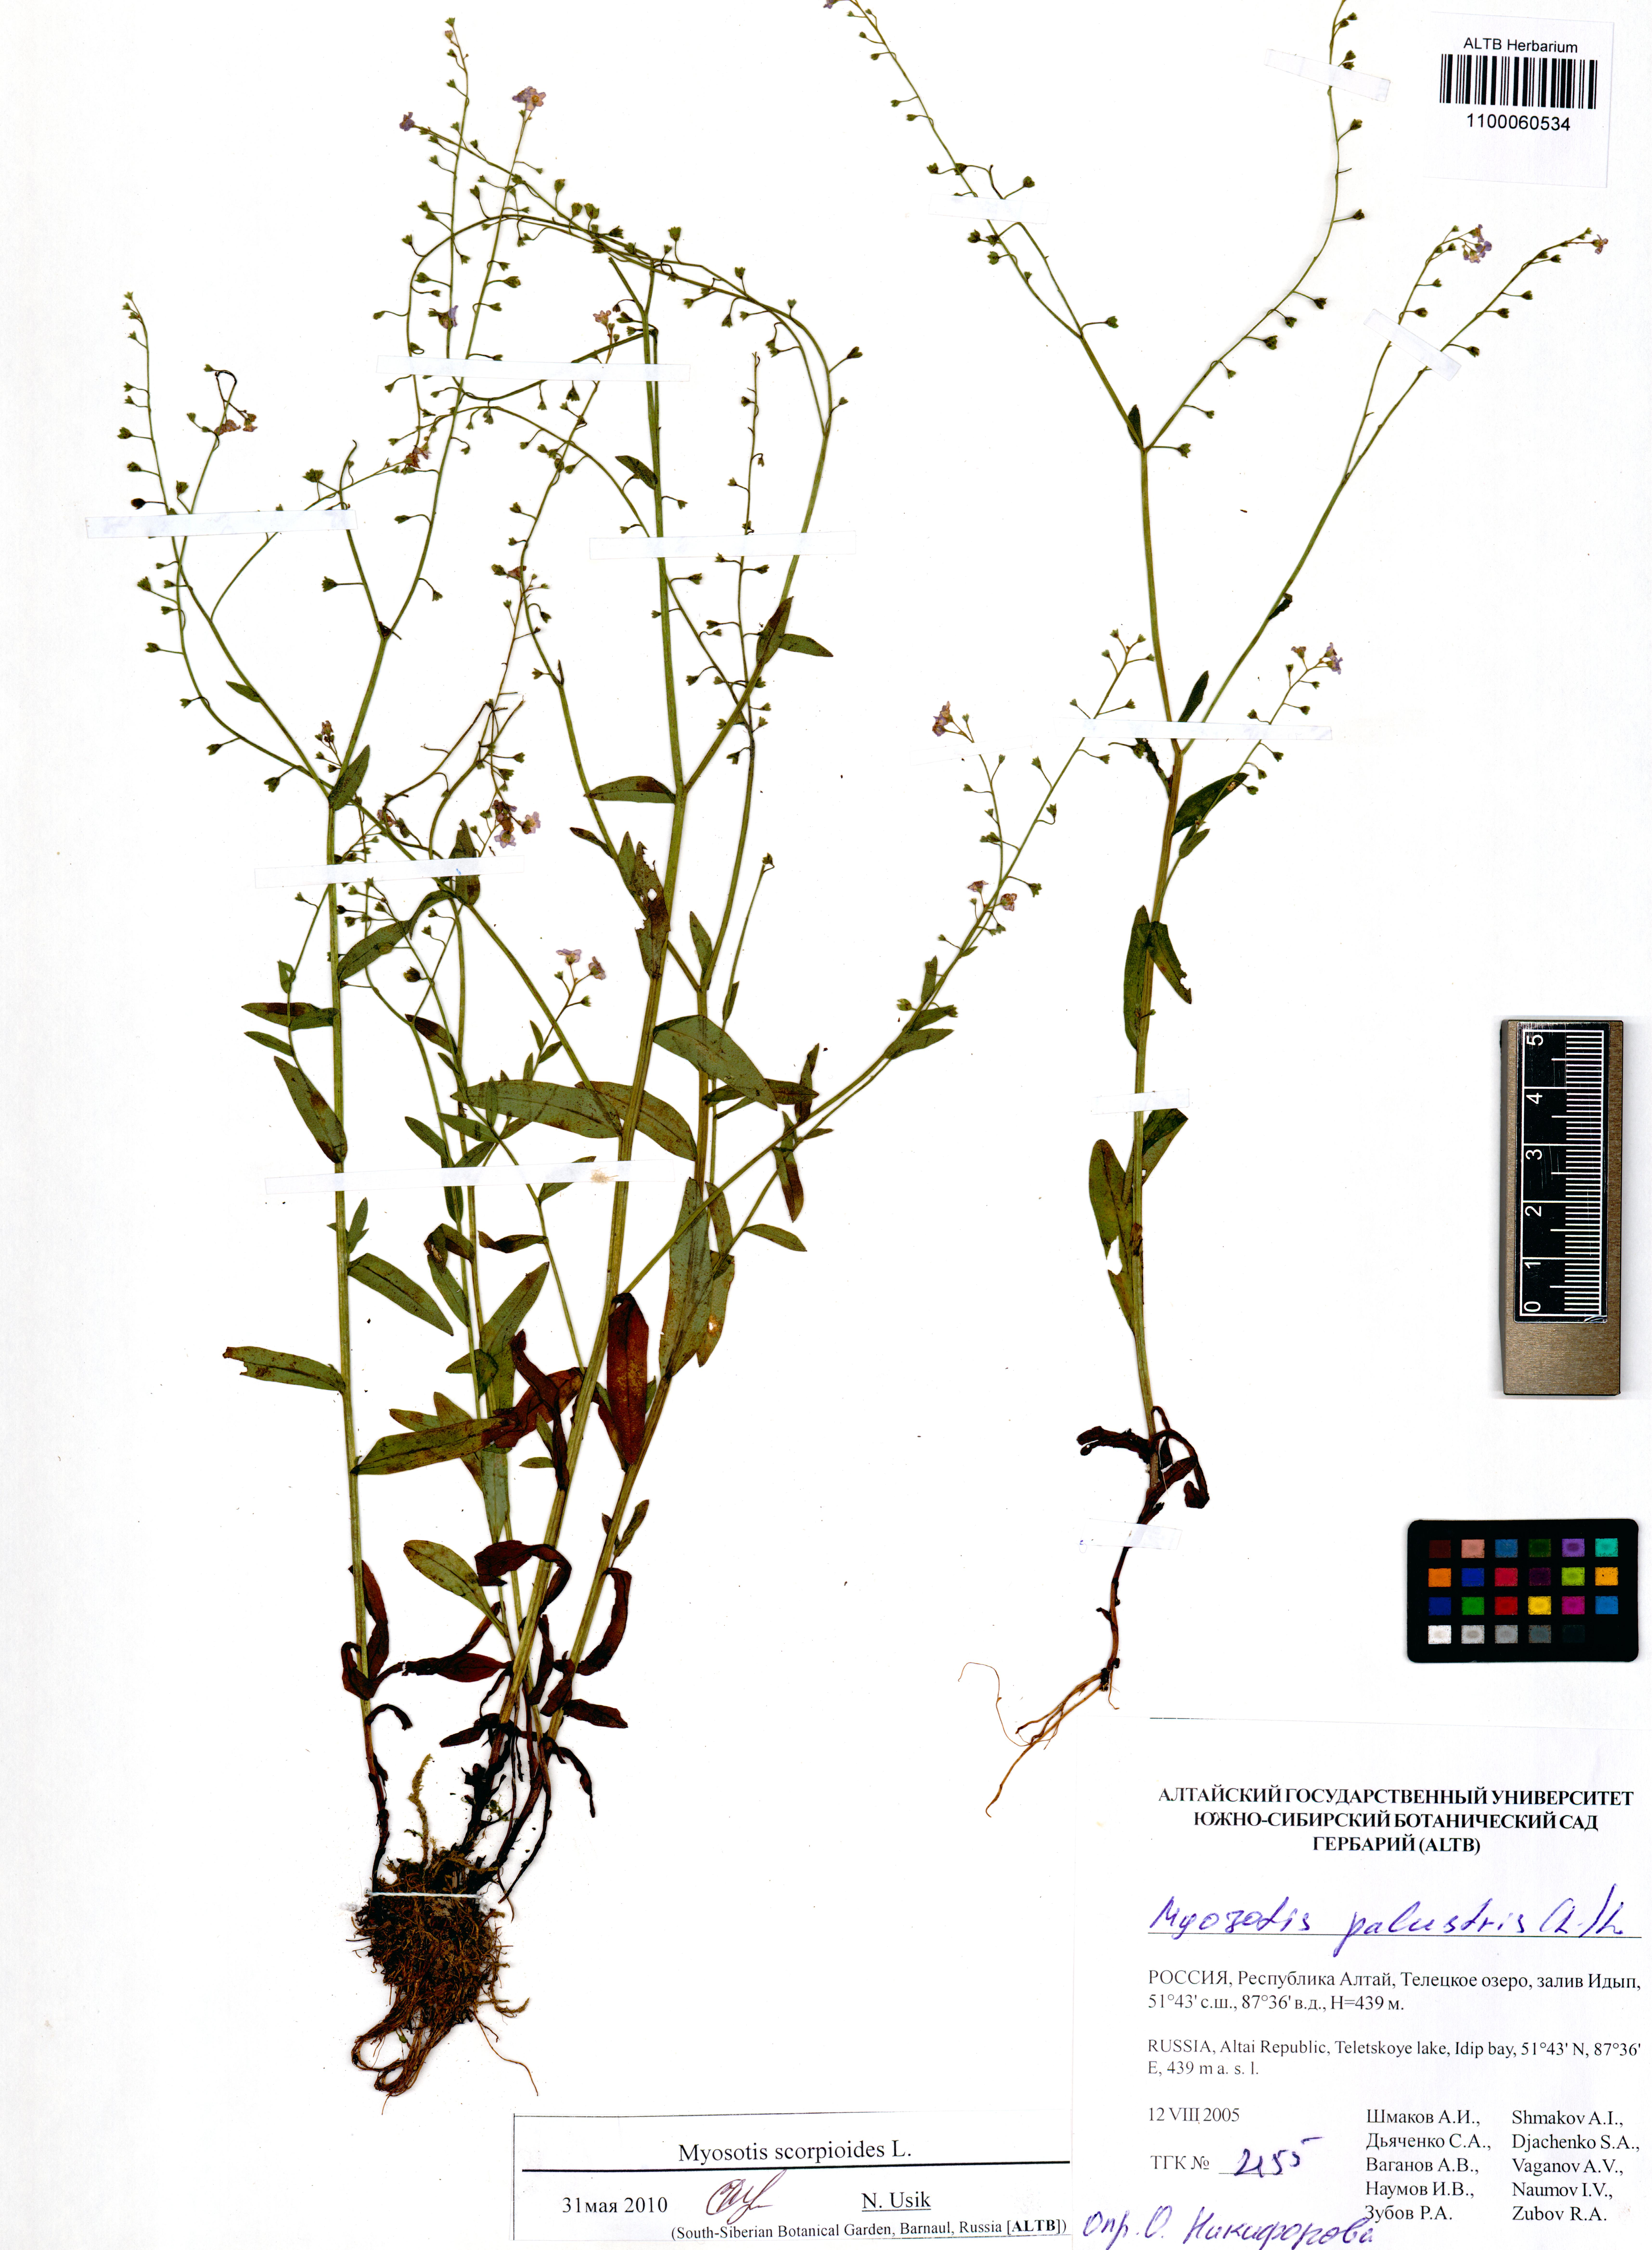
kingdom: Plantae
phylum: Tracheophyta
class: Magnoliopsida
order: Boraginales
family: Boraginaceae
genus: Myosotis
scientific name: Myosotis scorpioides
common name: Water forget-me-not
